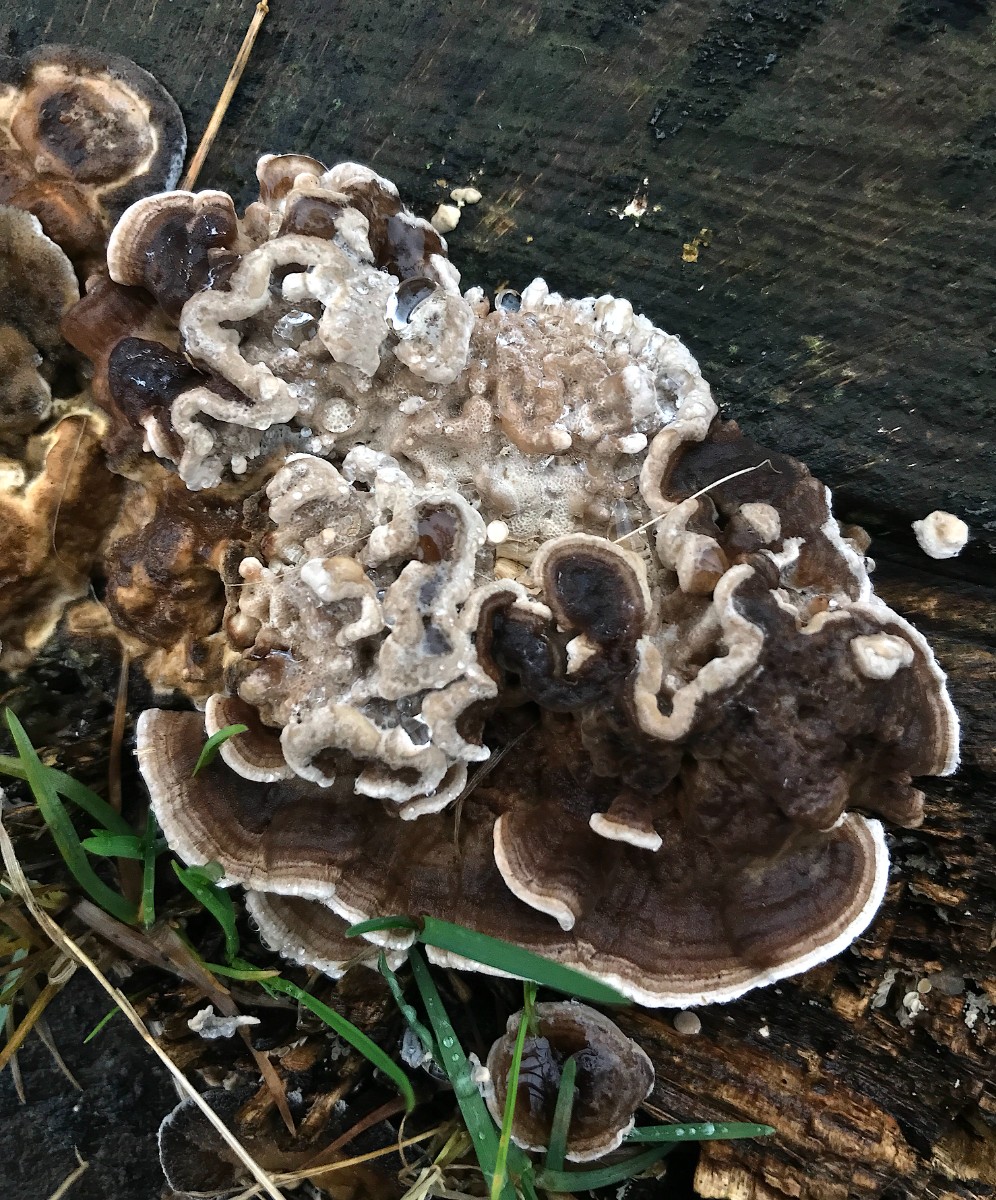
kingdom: Fungi
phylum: Basidiomycota
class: Agaricomycetes
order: Polyporales
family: Phanerochaetaceae
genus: Bjerkandera
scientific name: Bjerkandera adusta
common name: sveden sodporesvamp
